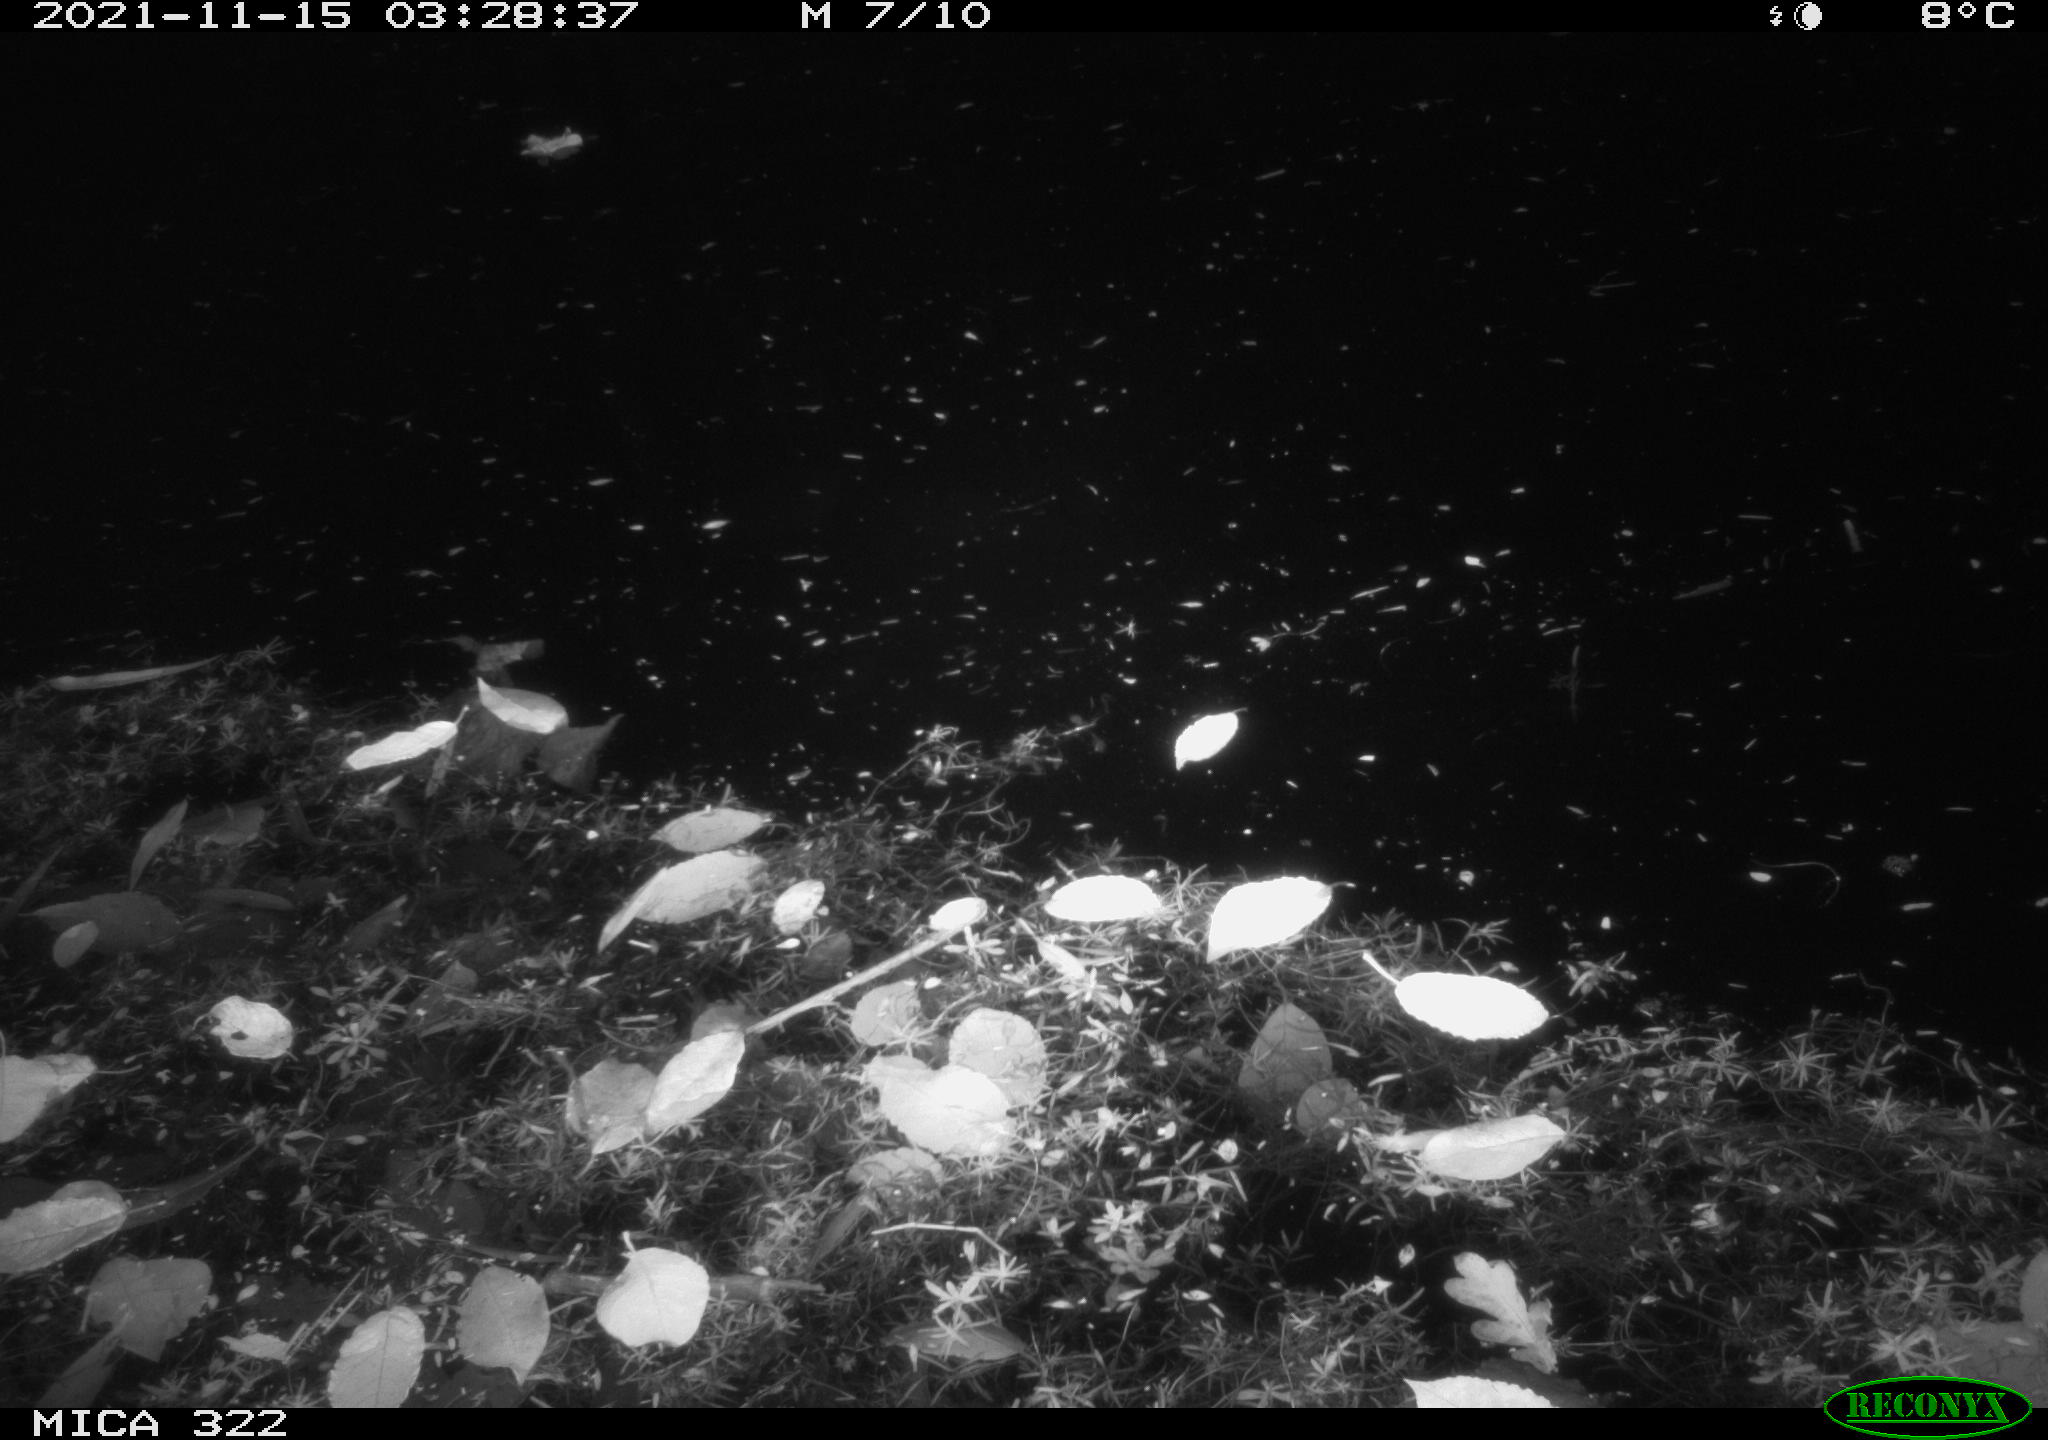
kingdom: Animalia
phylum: Chordata
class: Mammalia
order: Rodentia
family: Muridae
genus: Rattus
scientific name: Rattus norvegicus
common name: Brown rat
